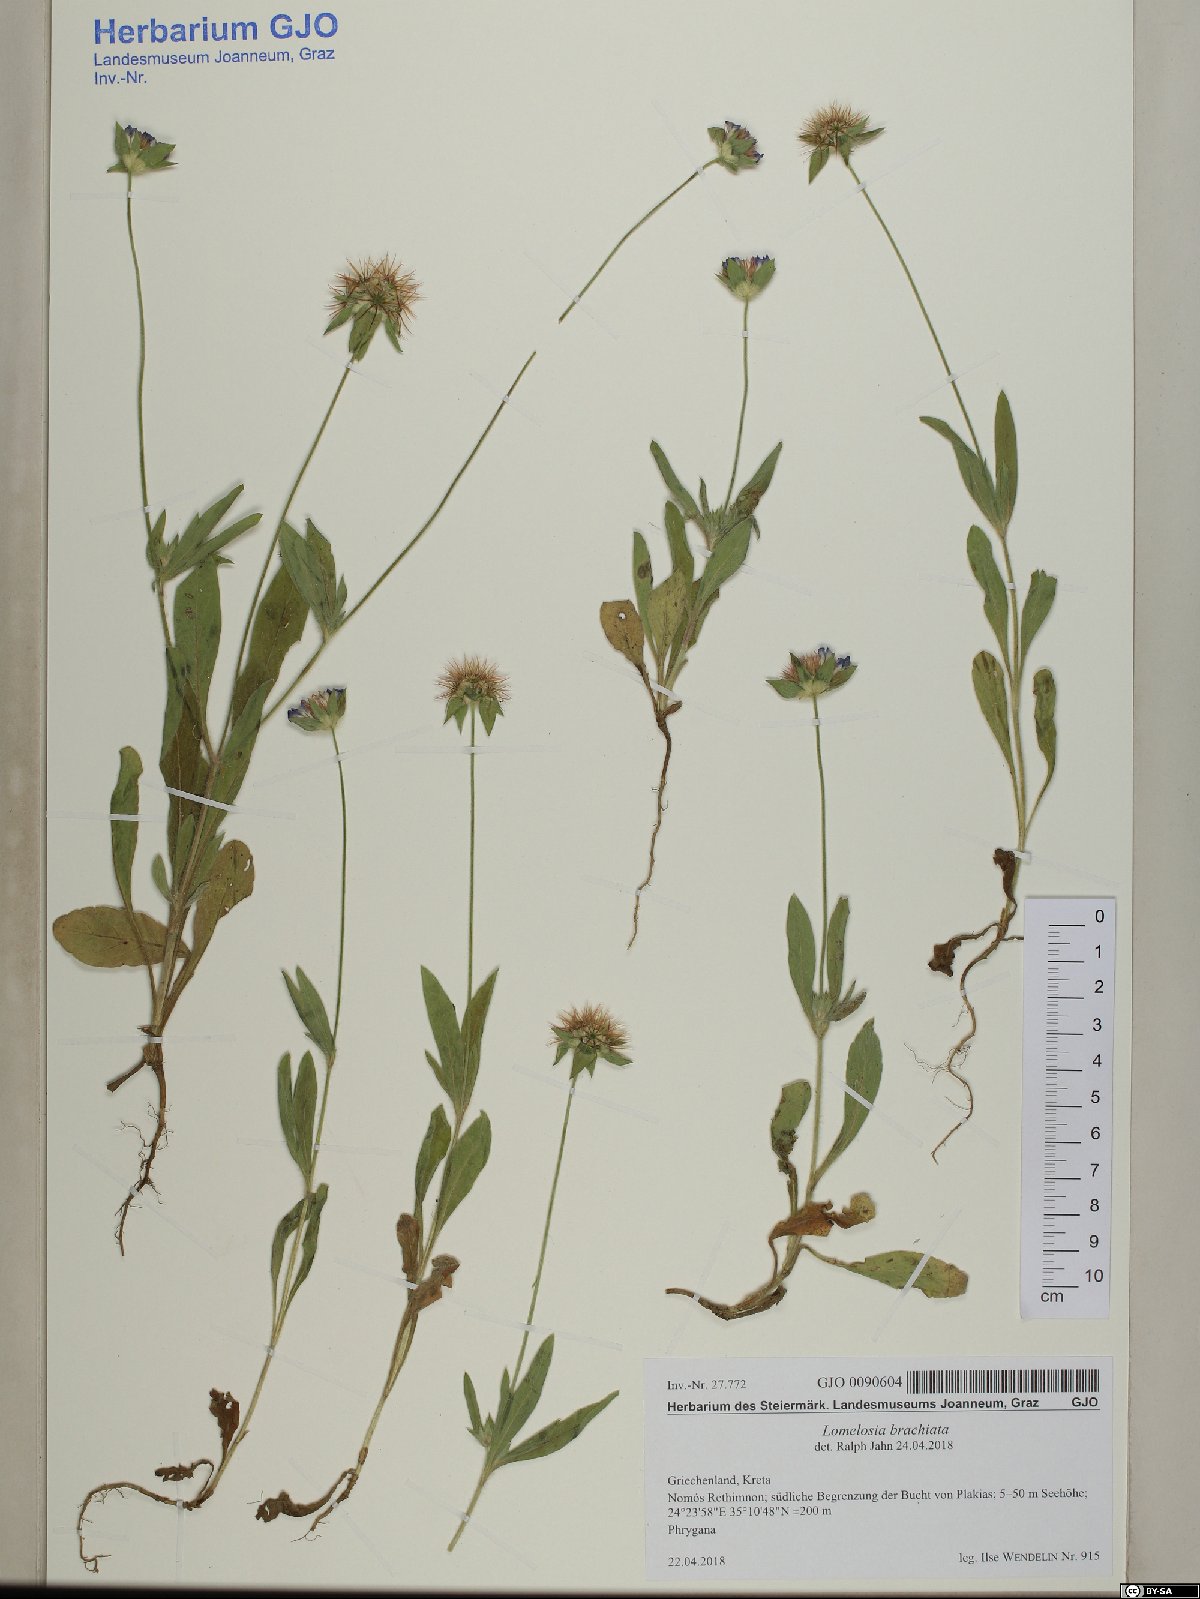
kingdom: Plantae
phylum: Tracheophyta
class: Magnoliopsida
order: Dipsacales
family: Caprifoliaceae
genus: Lomelosia
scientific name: Lomelosia brachiata
